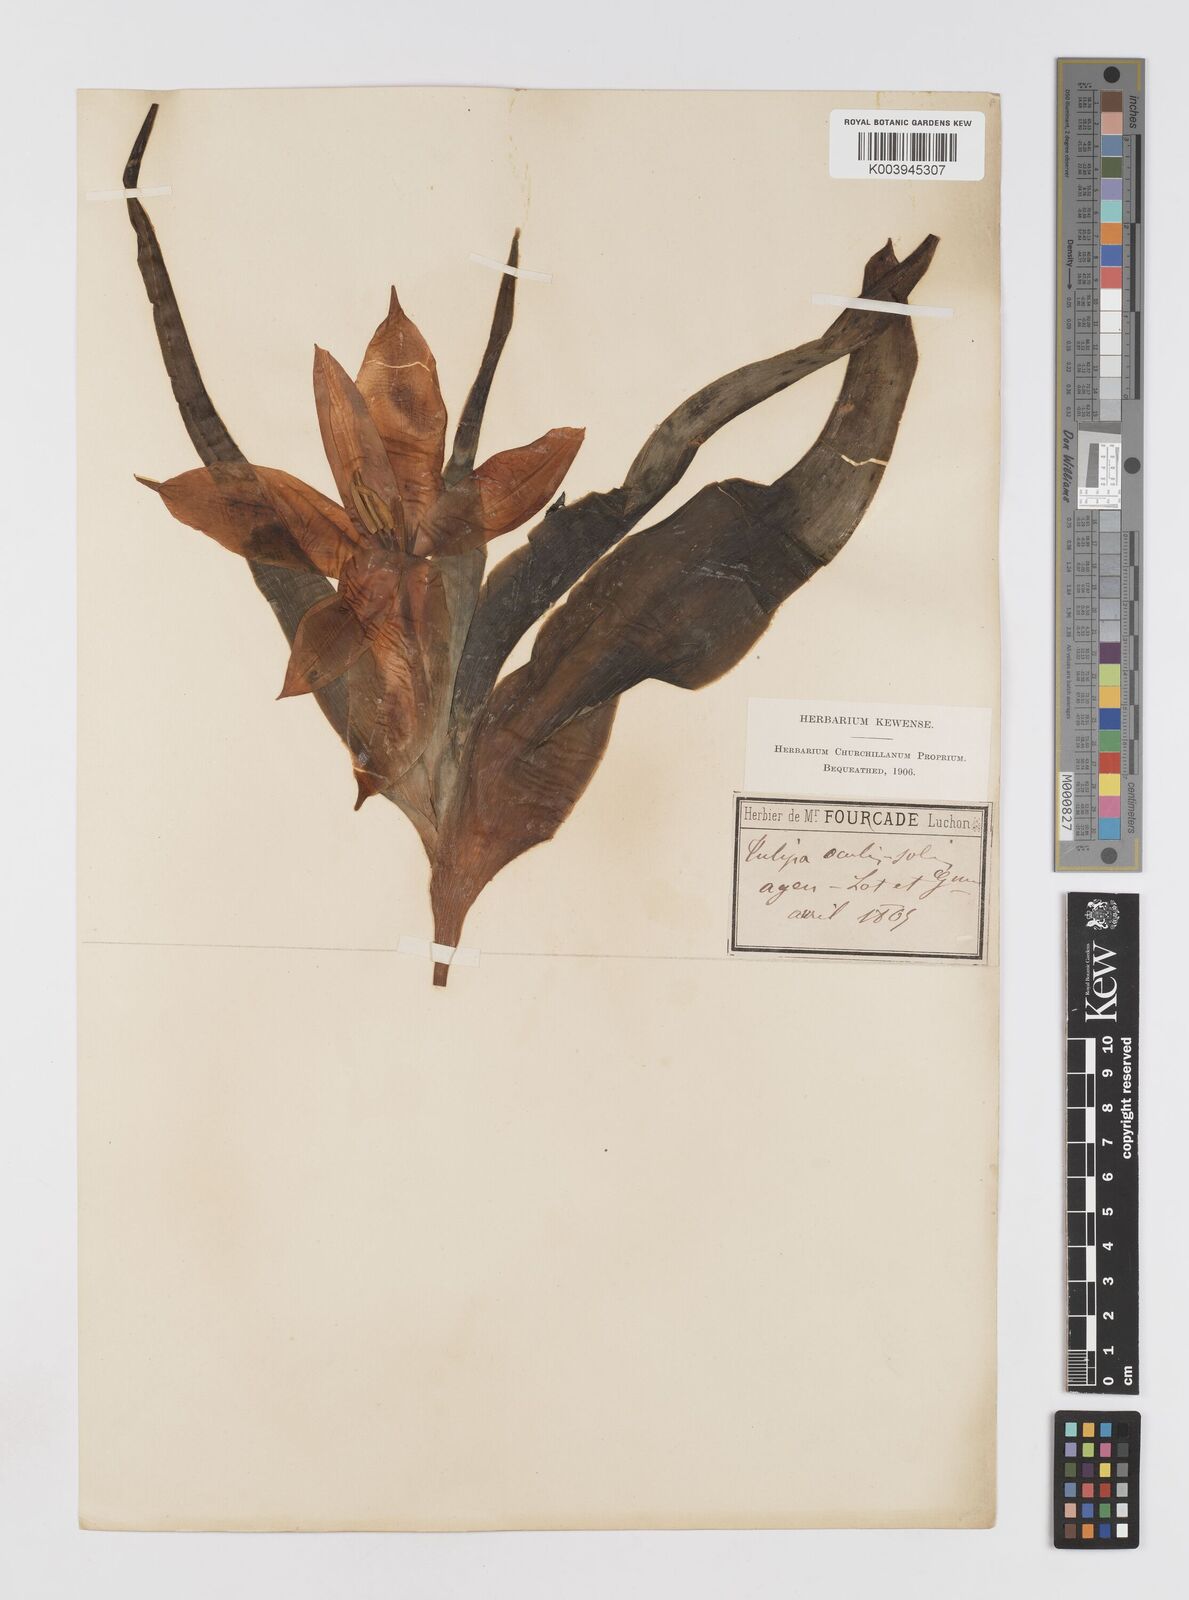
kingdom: Plantae
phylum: Tracheophyta
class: Liliopsida
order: Liliales
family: Liliaceae
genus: Tulipa
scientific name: Tulipa agenensis
